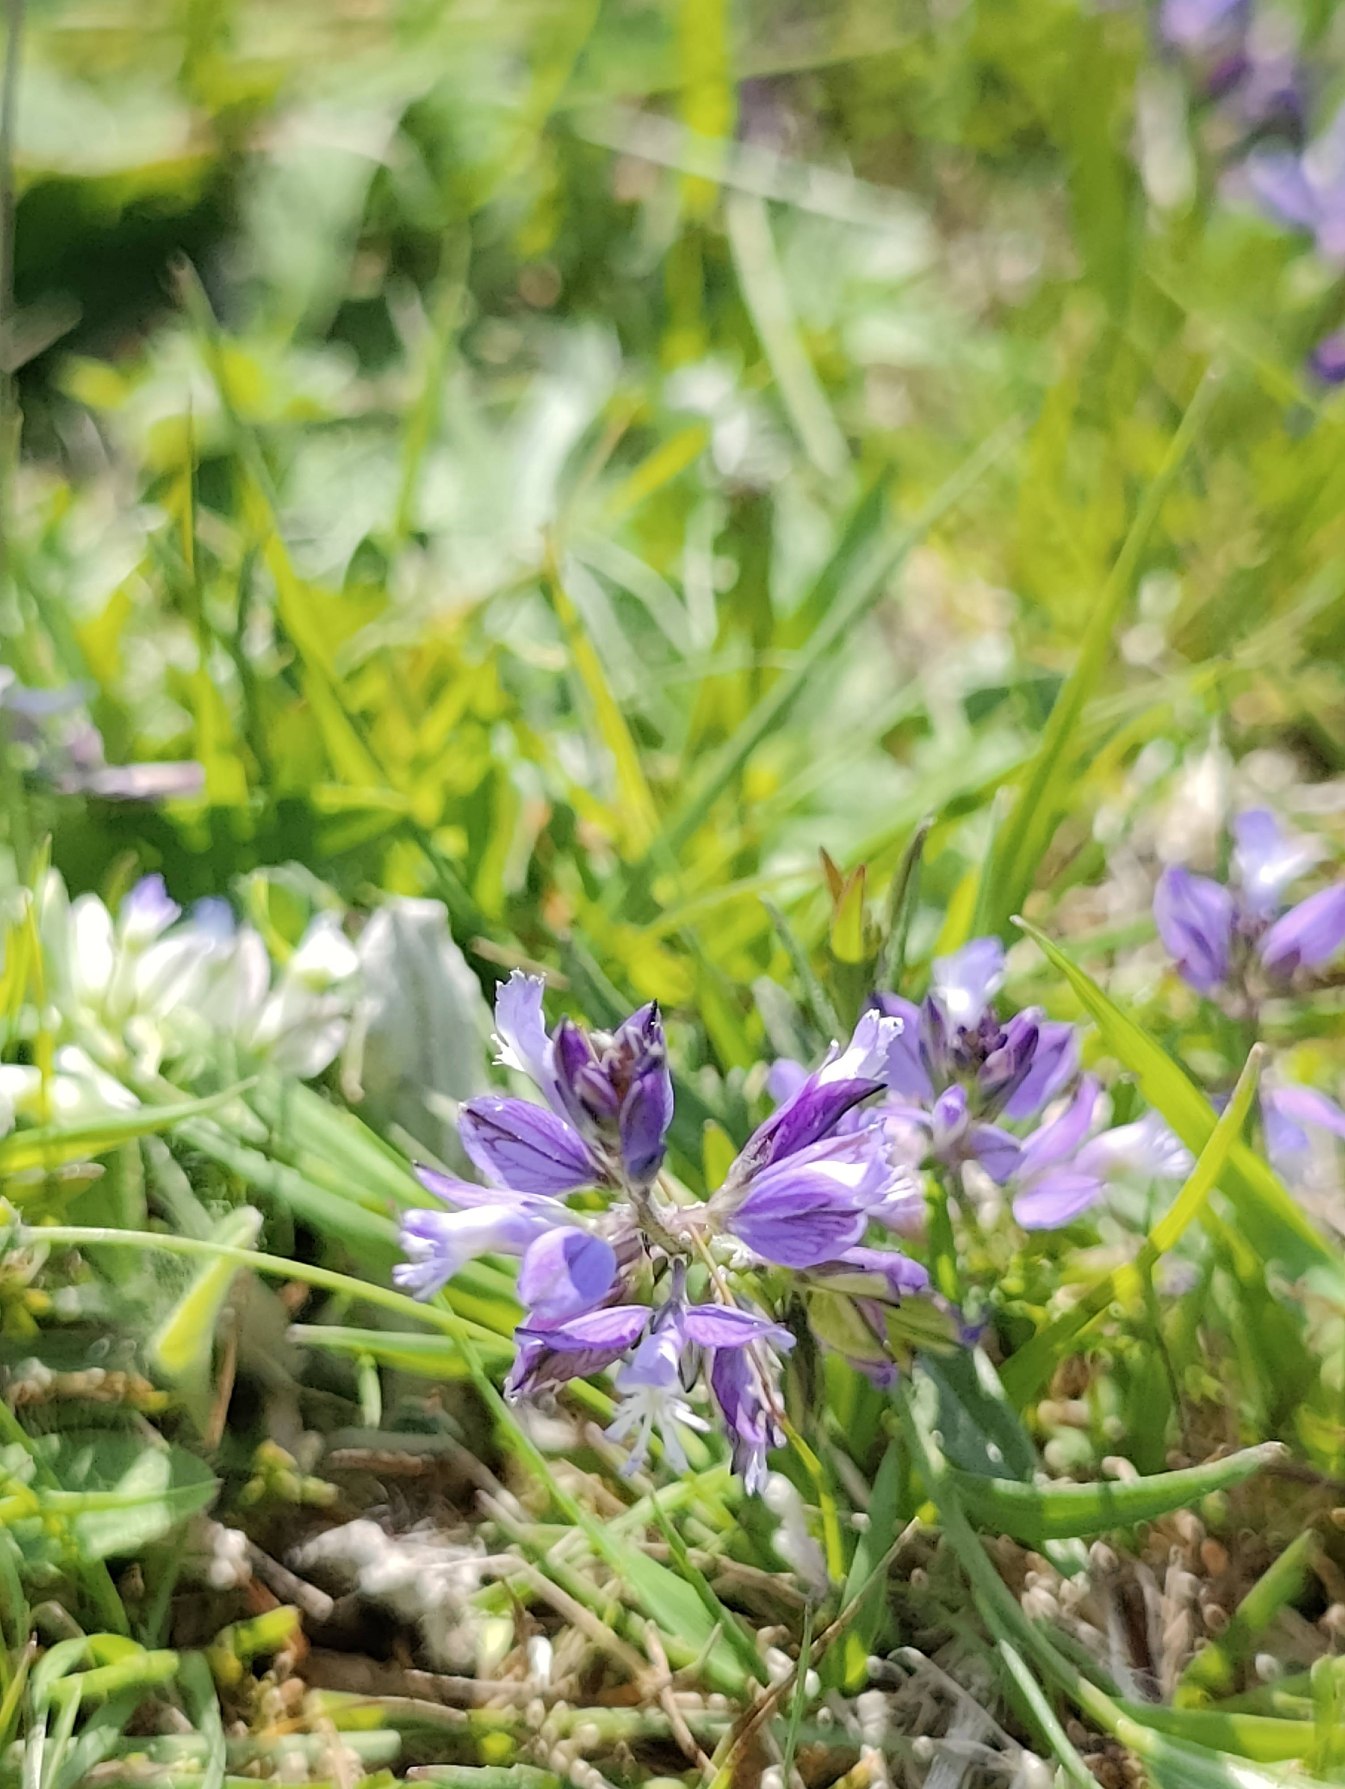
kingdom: Plantae
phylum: Tracheophyta
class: Magnoliopsida
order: Fabales
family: Polygalaceae
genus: Polygala
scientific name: Polygala vulgaris
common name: Almindelig mælkeurt
